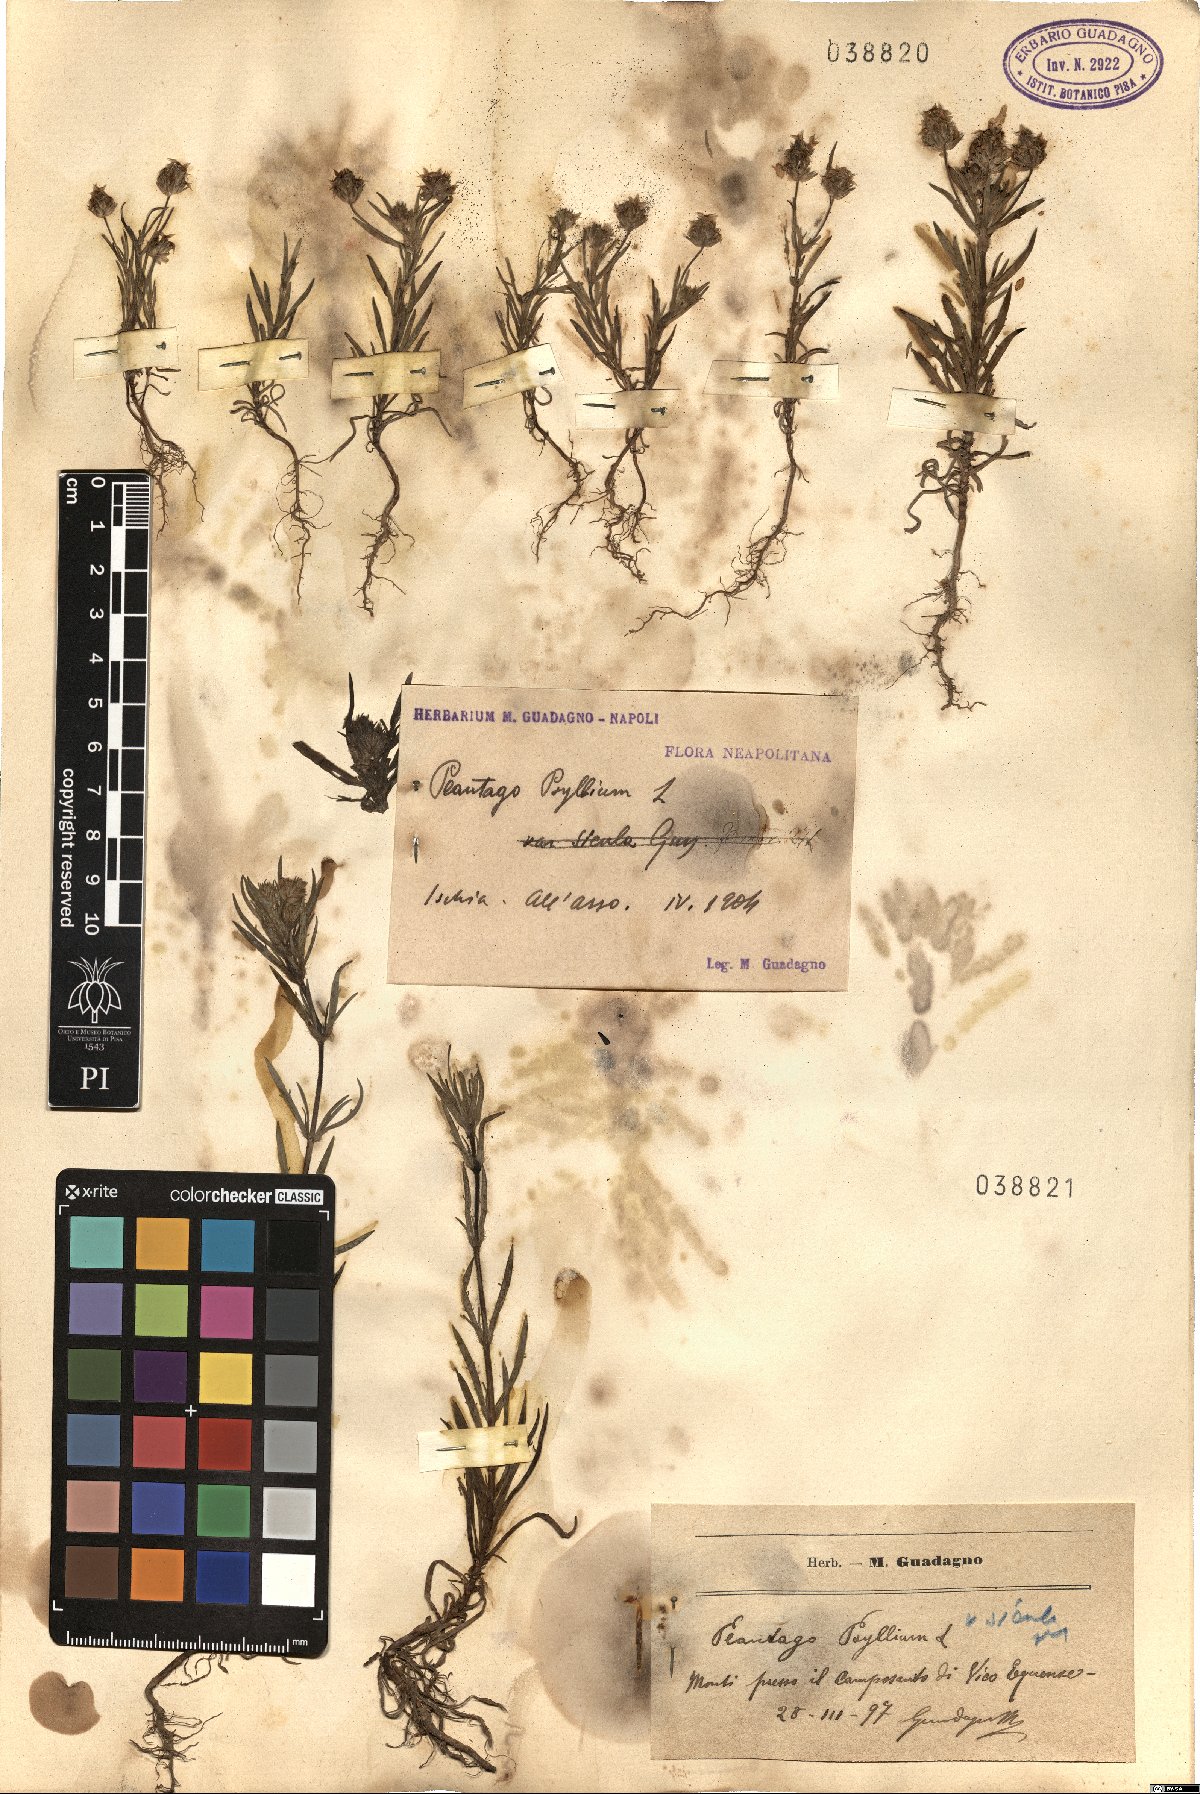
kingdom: Plantae
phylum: Tracheophyta
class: Magnoliopsida
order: Lamiales
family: Plantaginaceae
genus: Plantago
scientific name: Plantago
